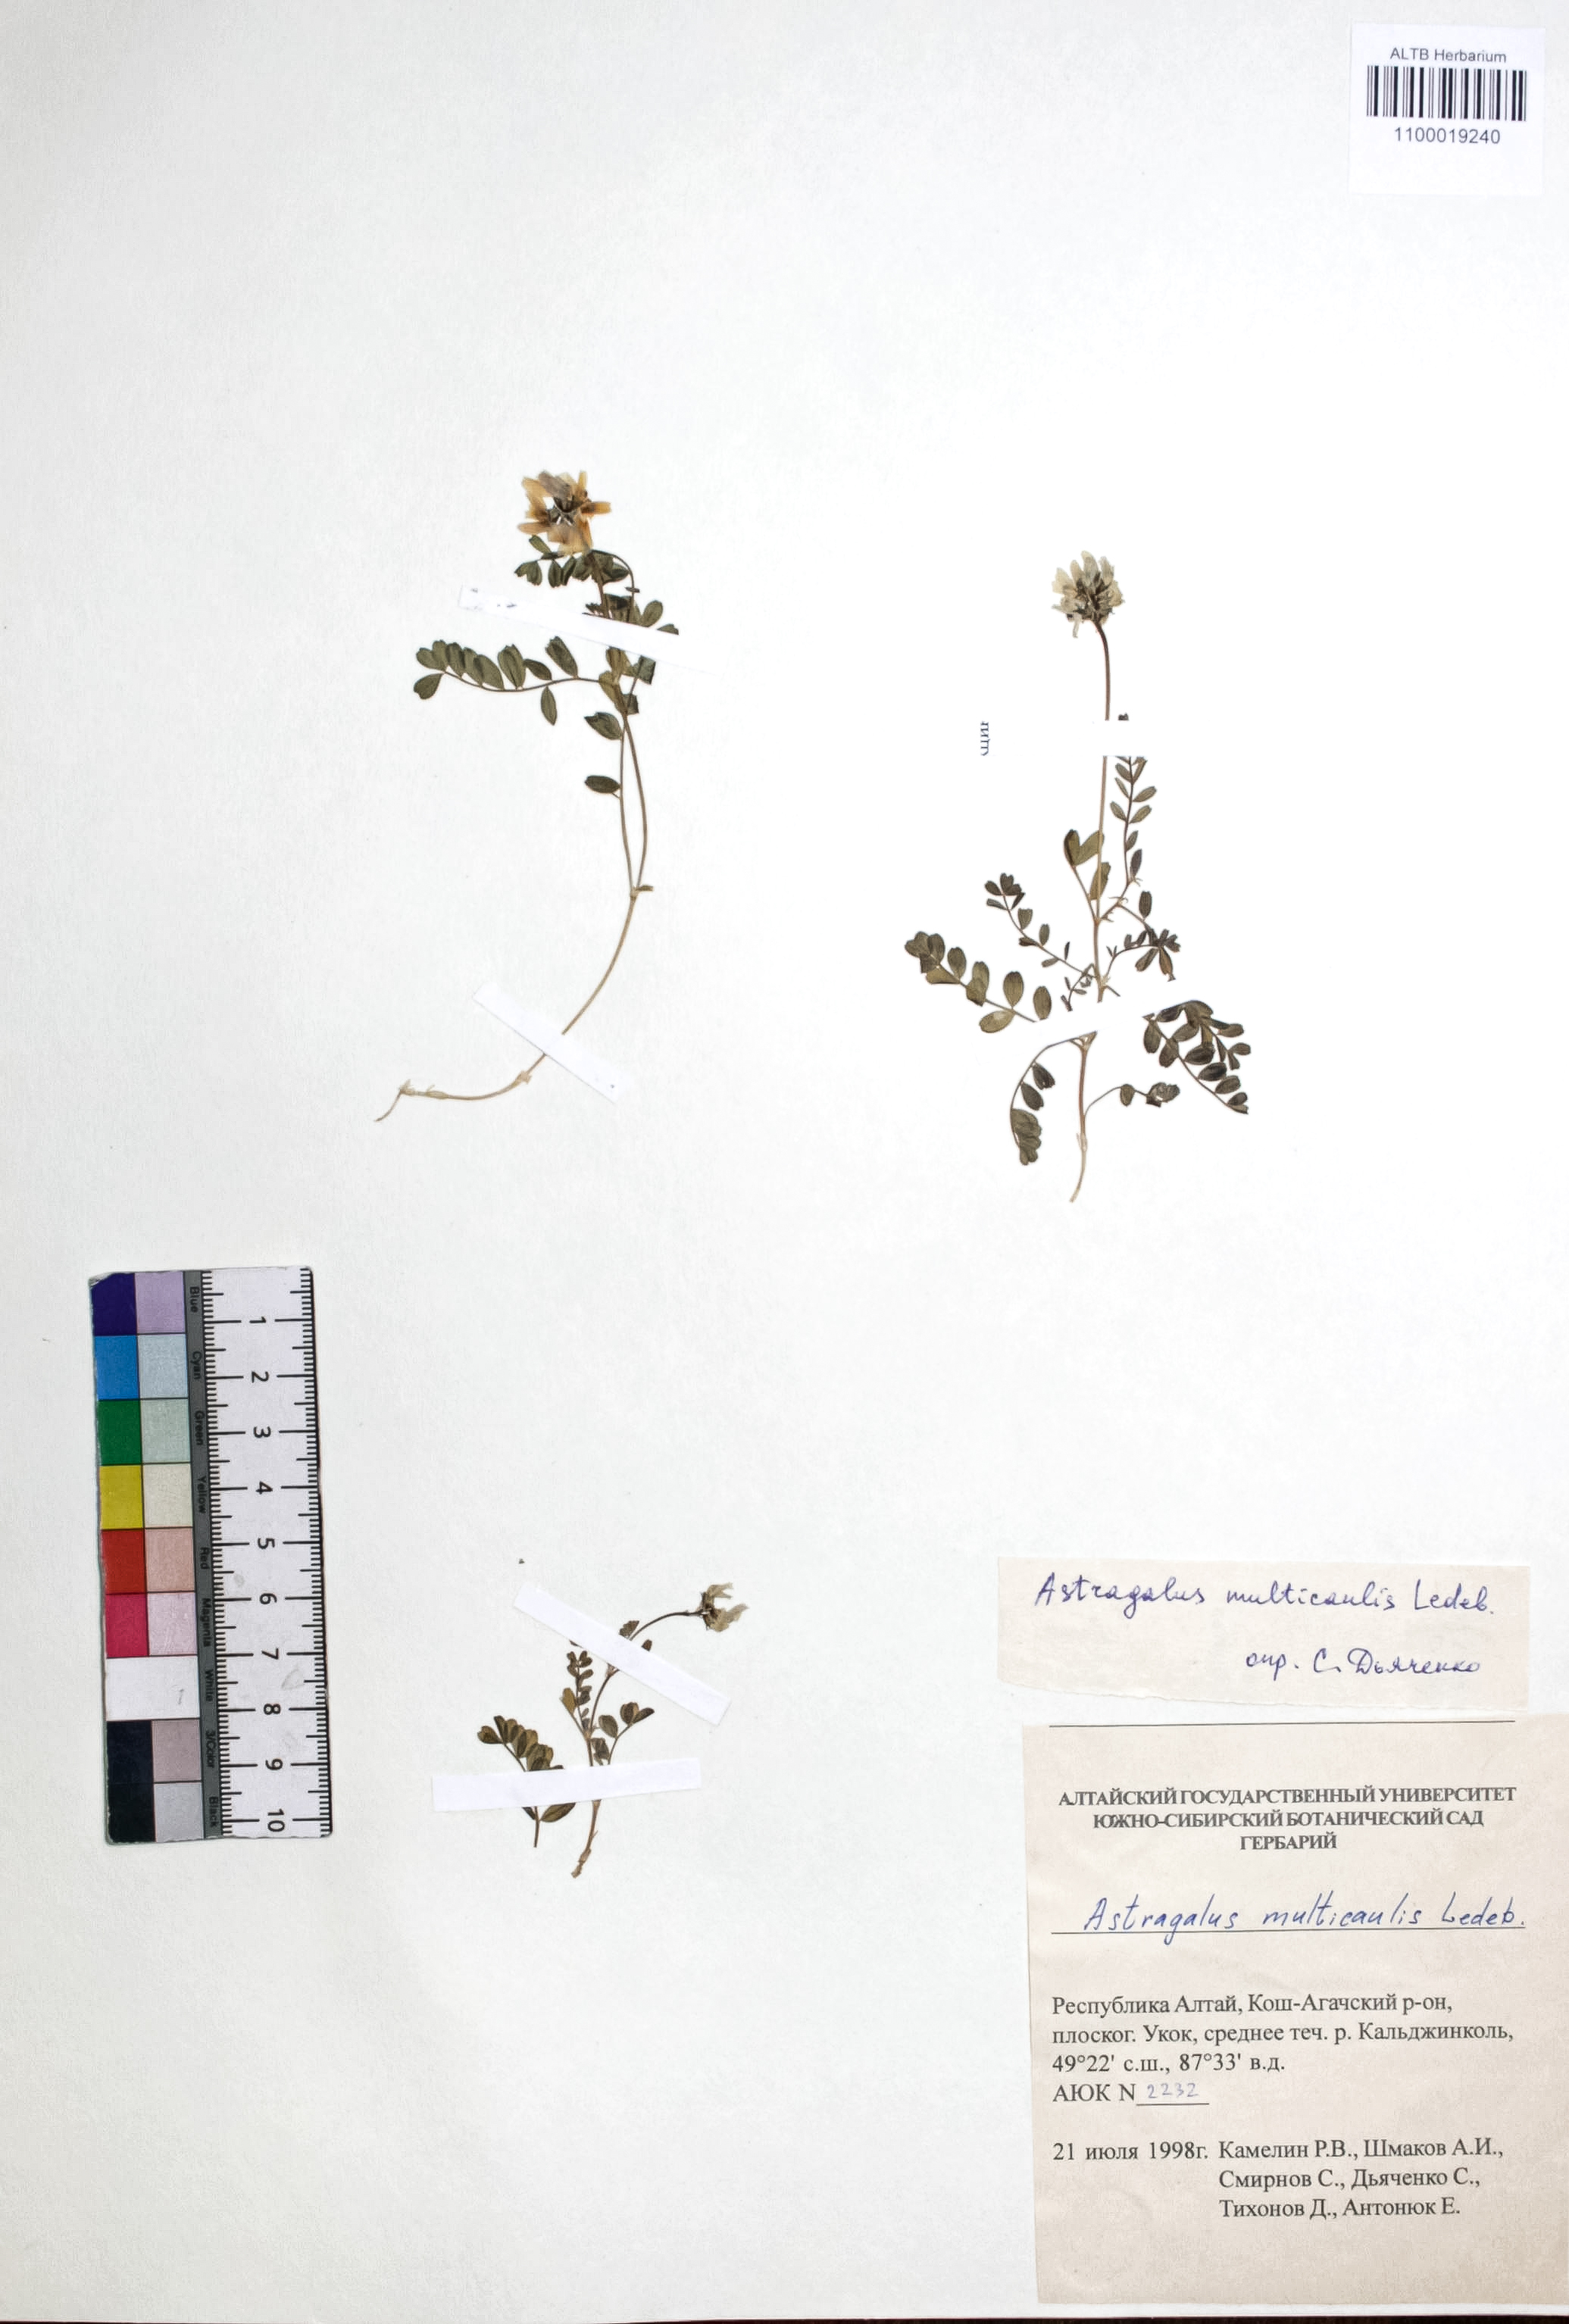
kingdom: Plantae
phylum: Tracheophyta
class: Magnoliopsida
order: Fabales
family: Fabaceae
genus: Astragalus
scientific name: Astragalus leptostachys
